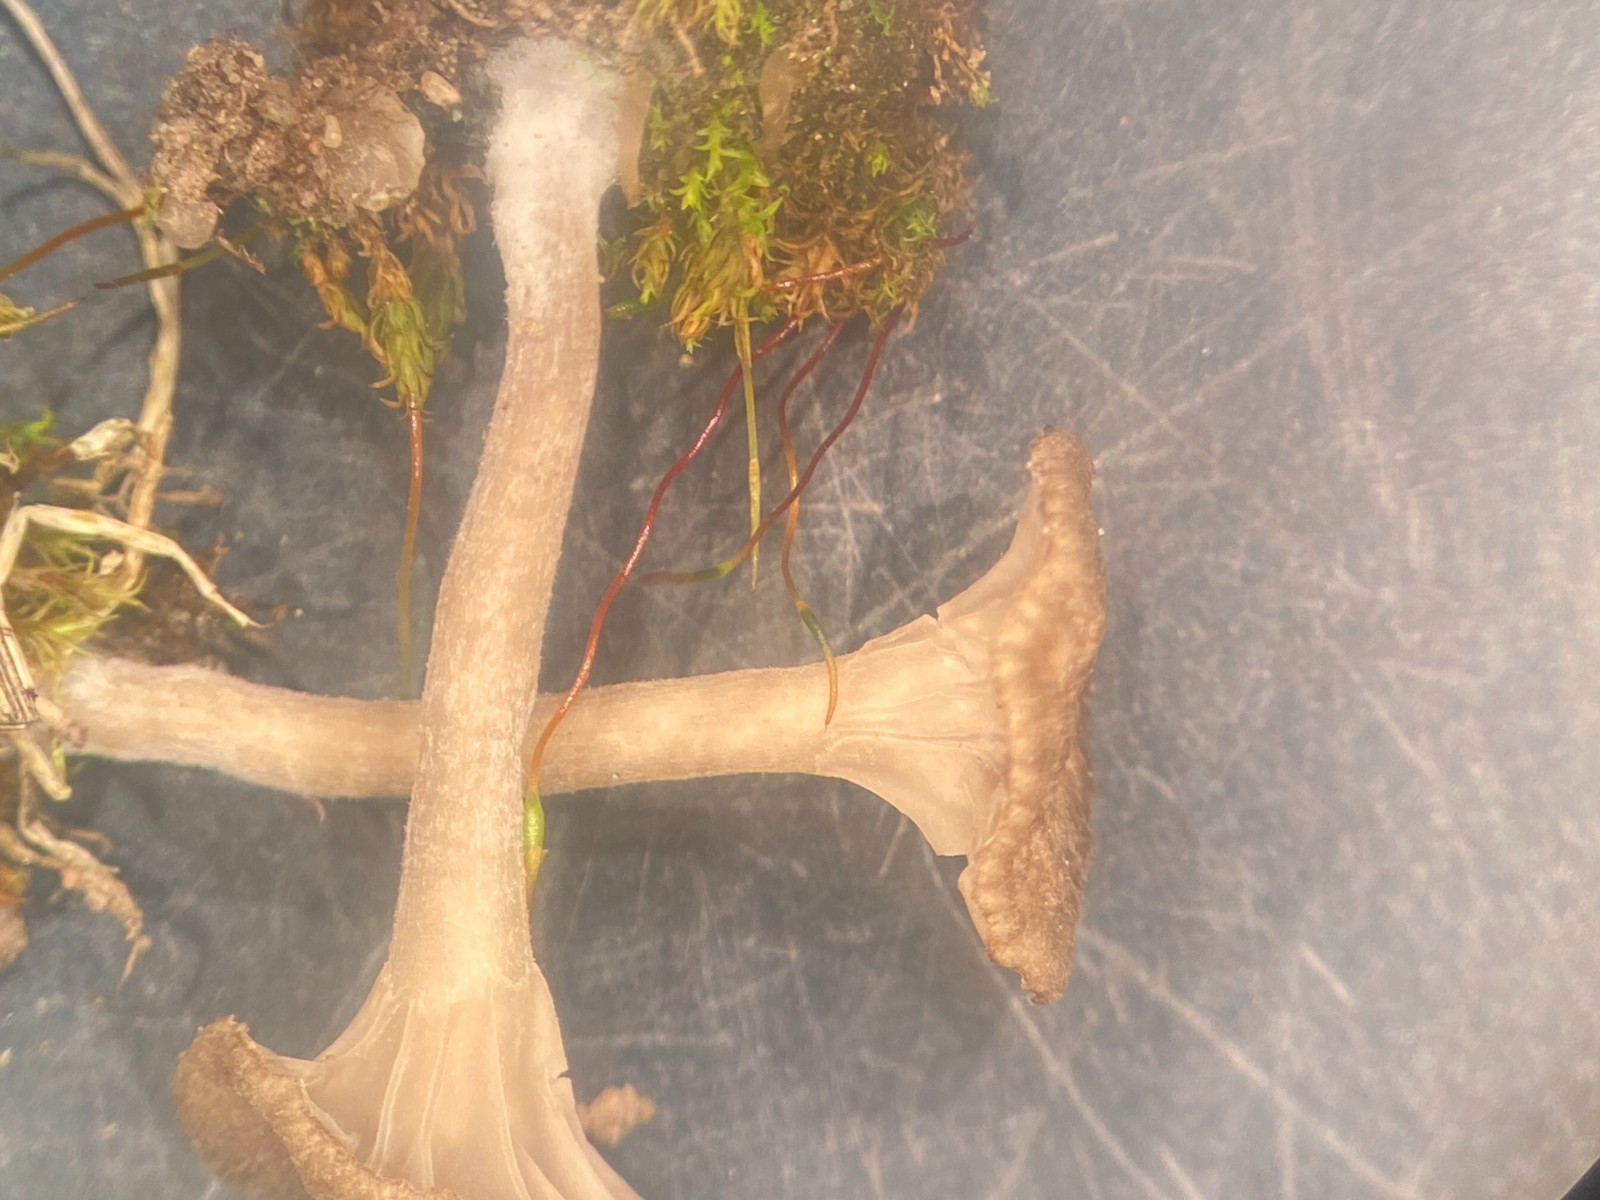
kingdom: Fungi
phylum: Basidiomycota
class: Agaricomycetes
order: Agaricales
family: Hygrophoraceae
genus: Arrhenia
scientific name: Arrhenia elegans
